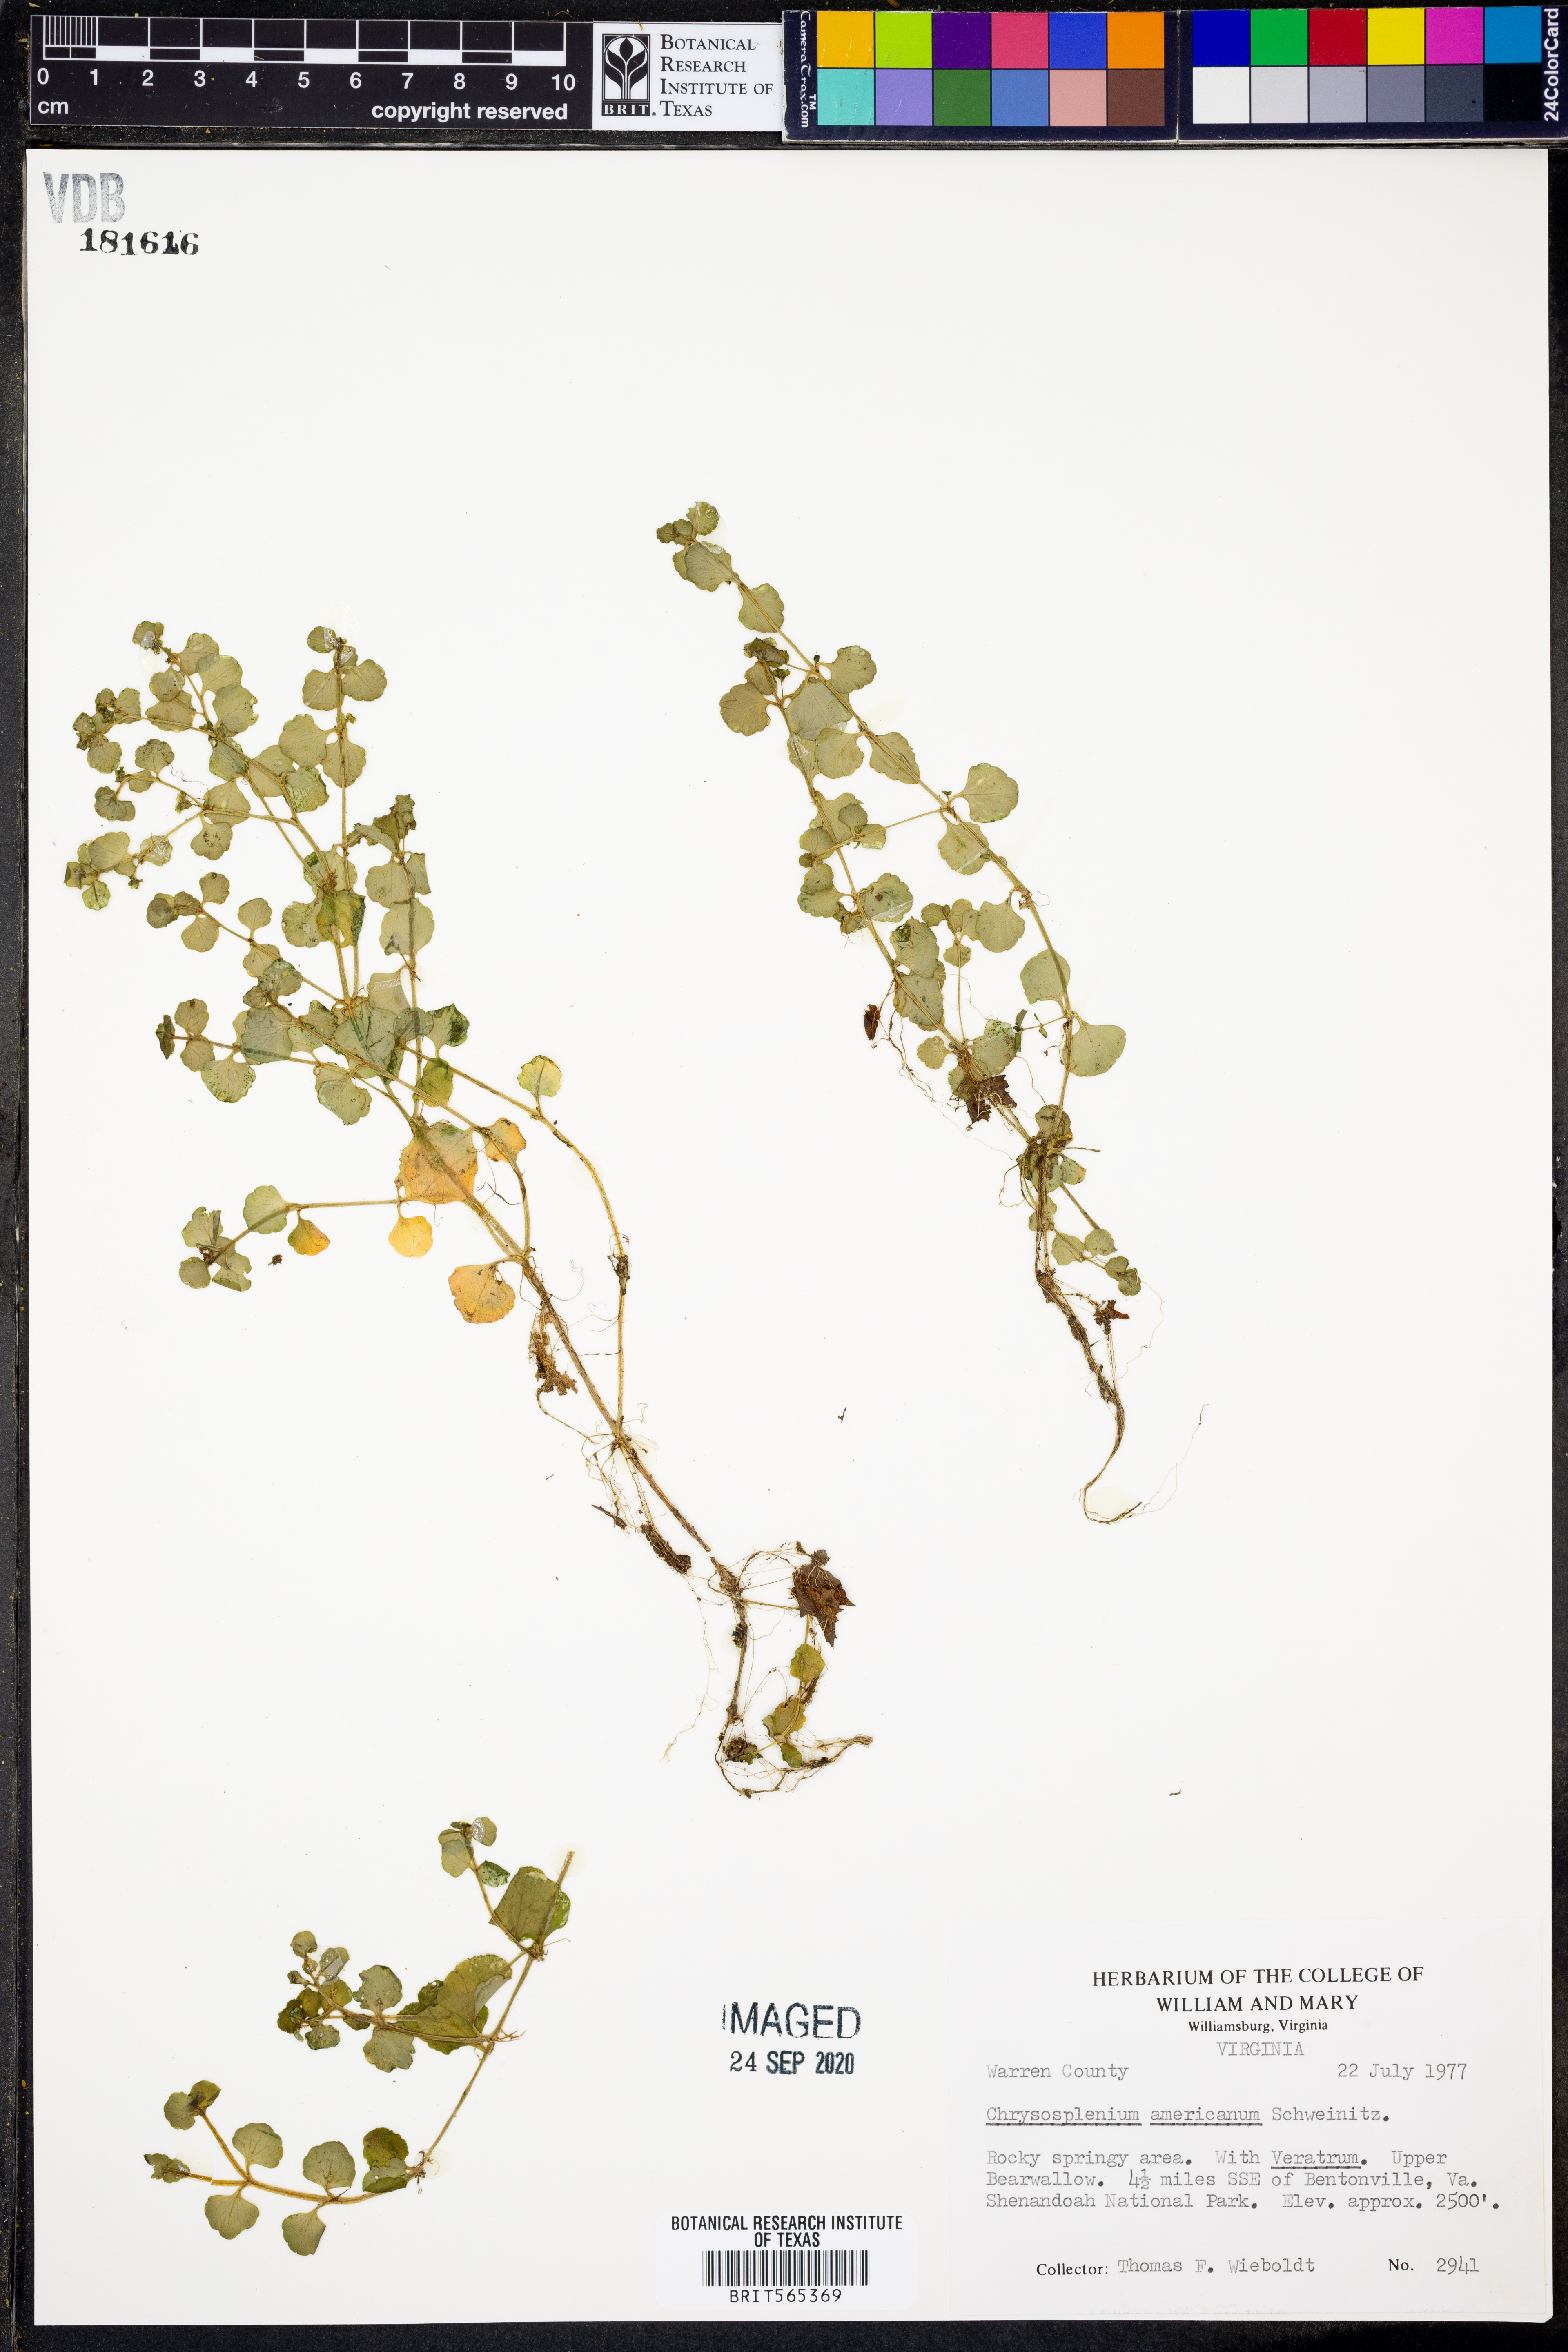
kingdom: Plantae
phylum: Tracheophyta
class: Magnoliopsida
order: Saxifragales
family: Saxifragaceae
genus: Chrysosplenium
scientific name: Chrysosplenium americanum
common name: American golden-saxifrage
